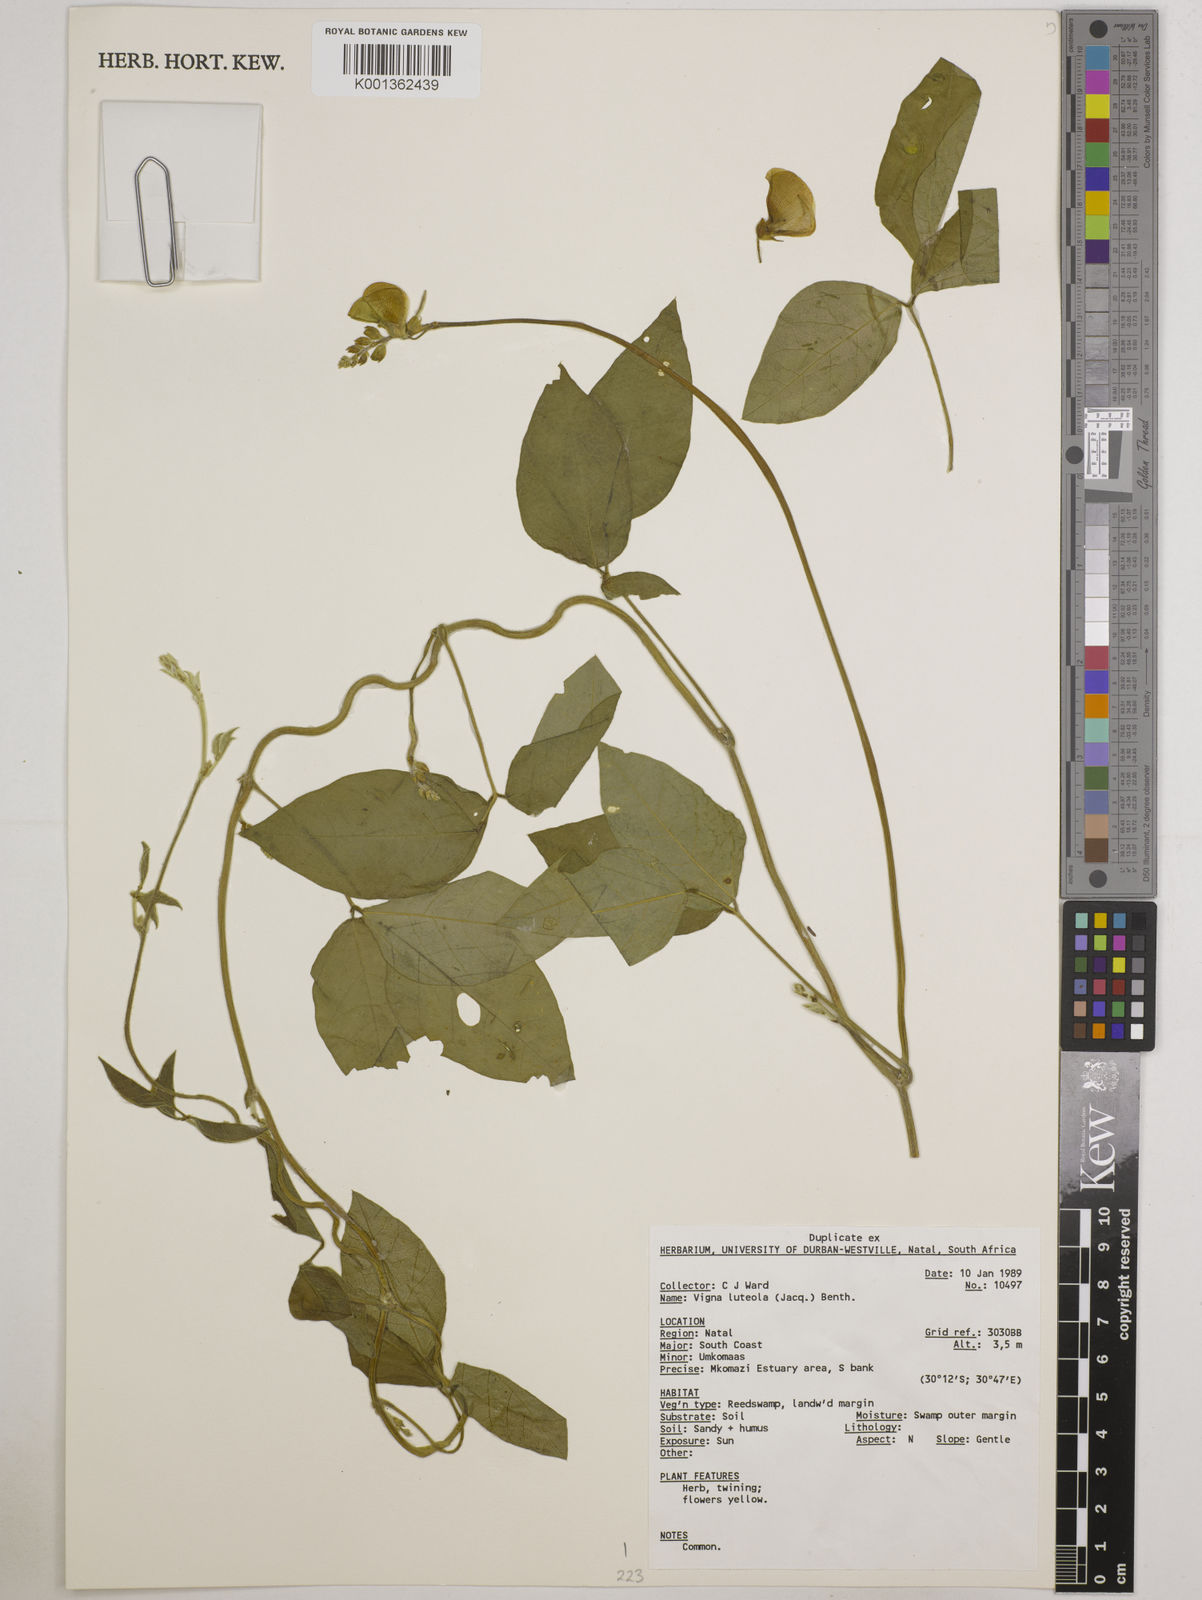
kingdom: Plantae
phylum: Tracheophyta
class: Magnoliopsida
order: Fabales
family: Fabaceae
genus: Vigna
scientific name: Vigna luteola
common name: Hairypod cowpea
